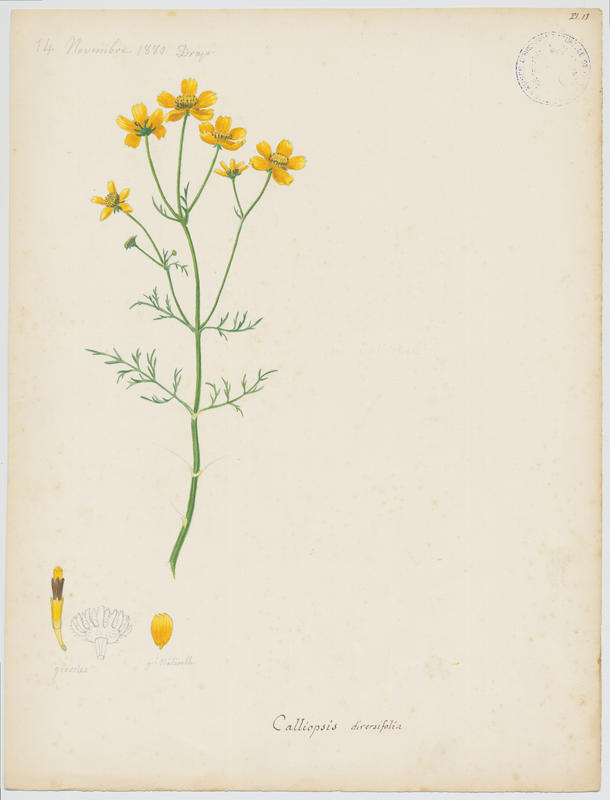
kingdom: Plantae
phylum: Tracheophyta
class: Magnoliopsida
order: Asterales
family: Asteraceae
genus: Coreopsis
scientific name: Coreopsis
